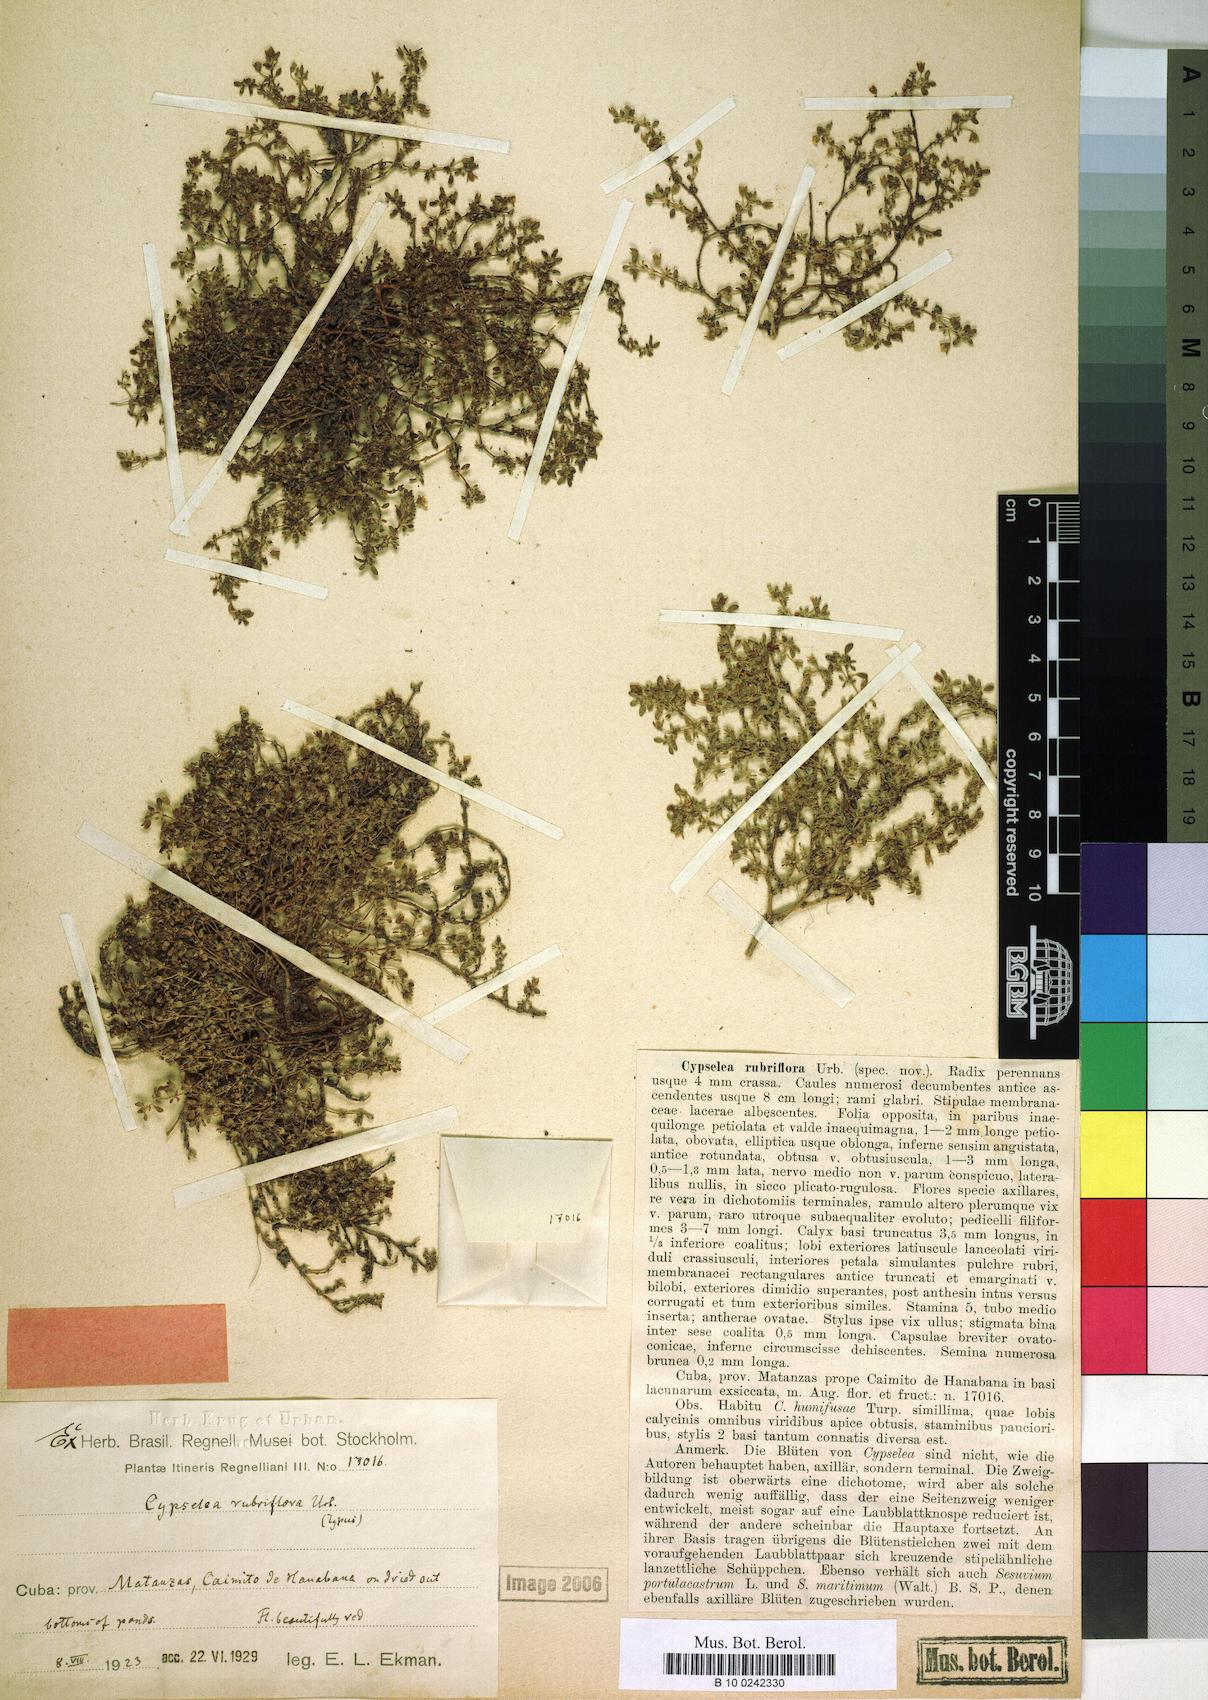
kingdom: Plantae
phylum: Tracheophyta
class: Magnoliopsida
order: Caryophyllales
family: Aizoaceae
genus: Sesuvium
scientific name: Sesuvium rubriflorum
